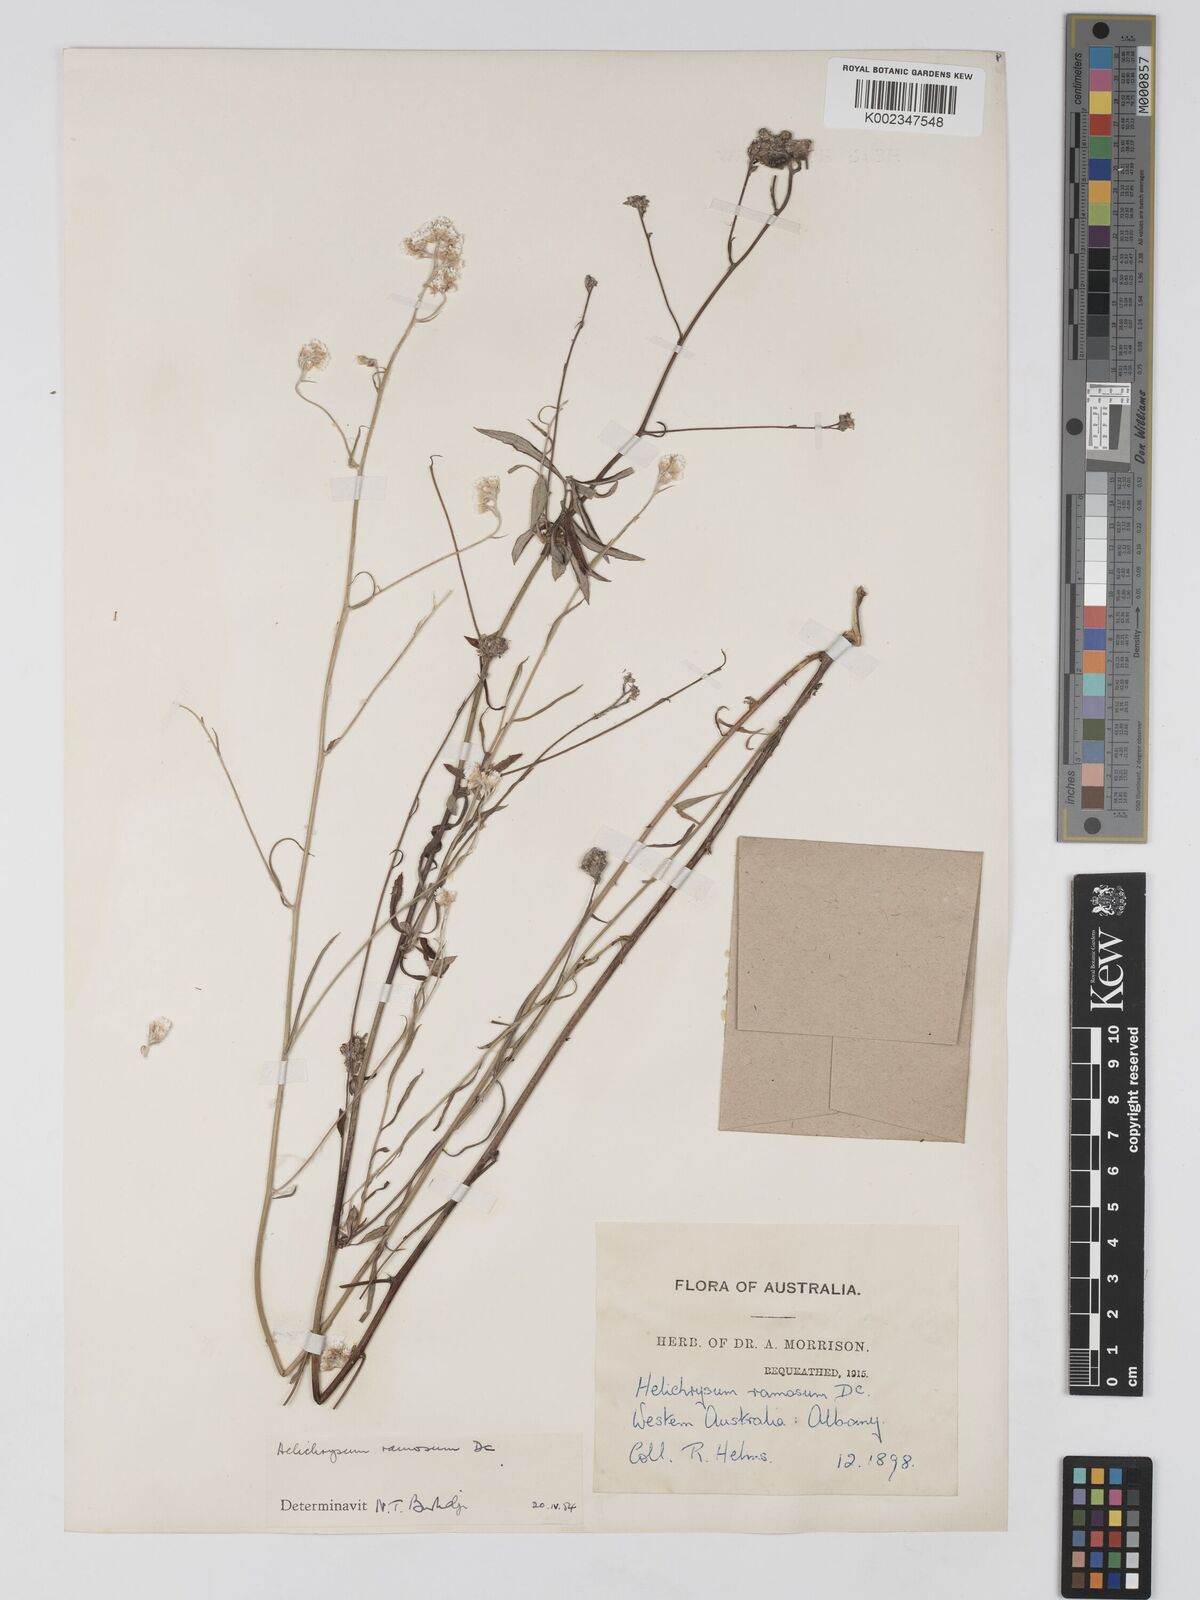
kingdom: Plantae
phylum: Tracheophyta
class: Magnoliopsida
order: Asterales
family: Asteraceae
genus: Pithocarpa
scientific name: Pithocarpa ramosa
